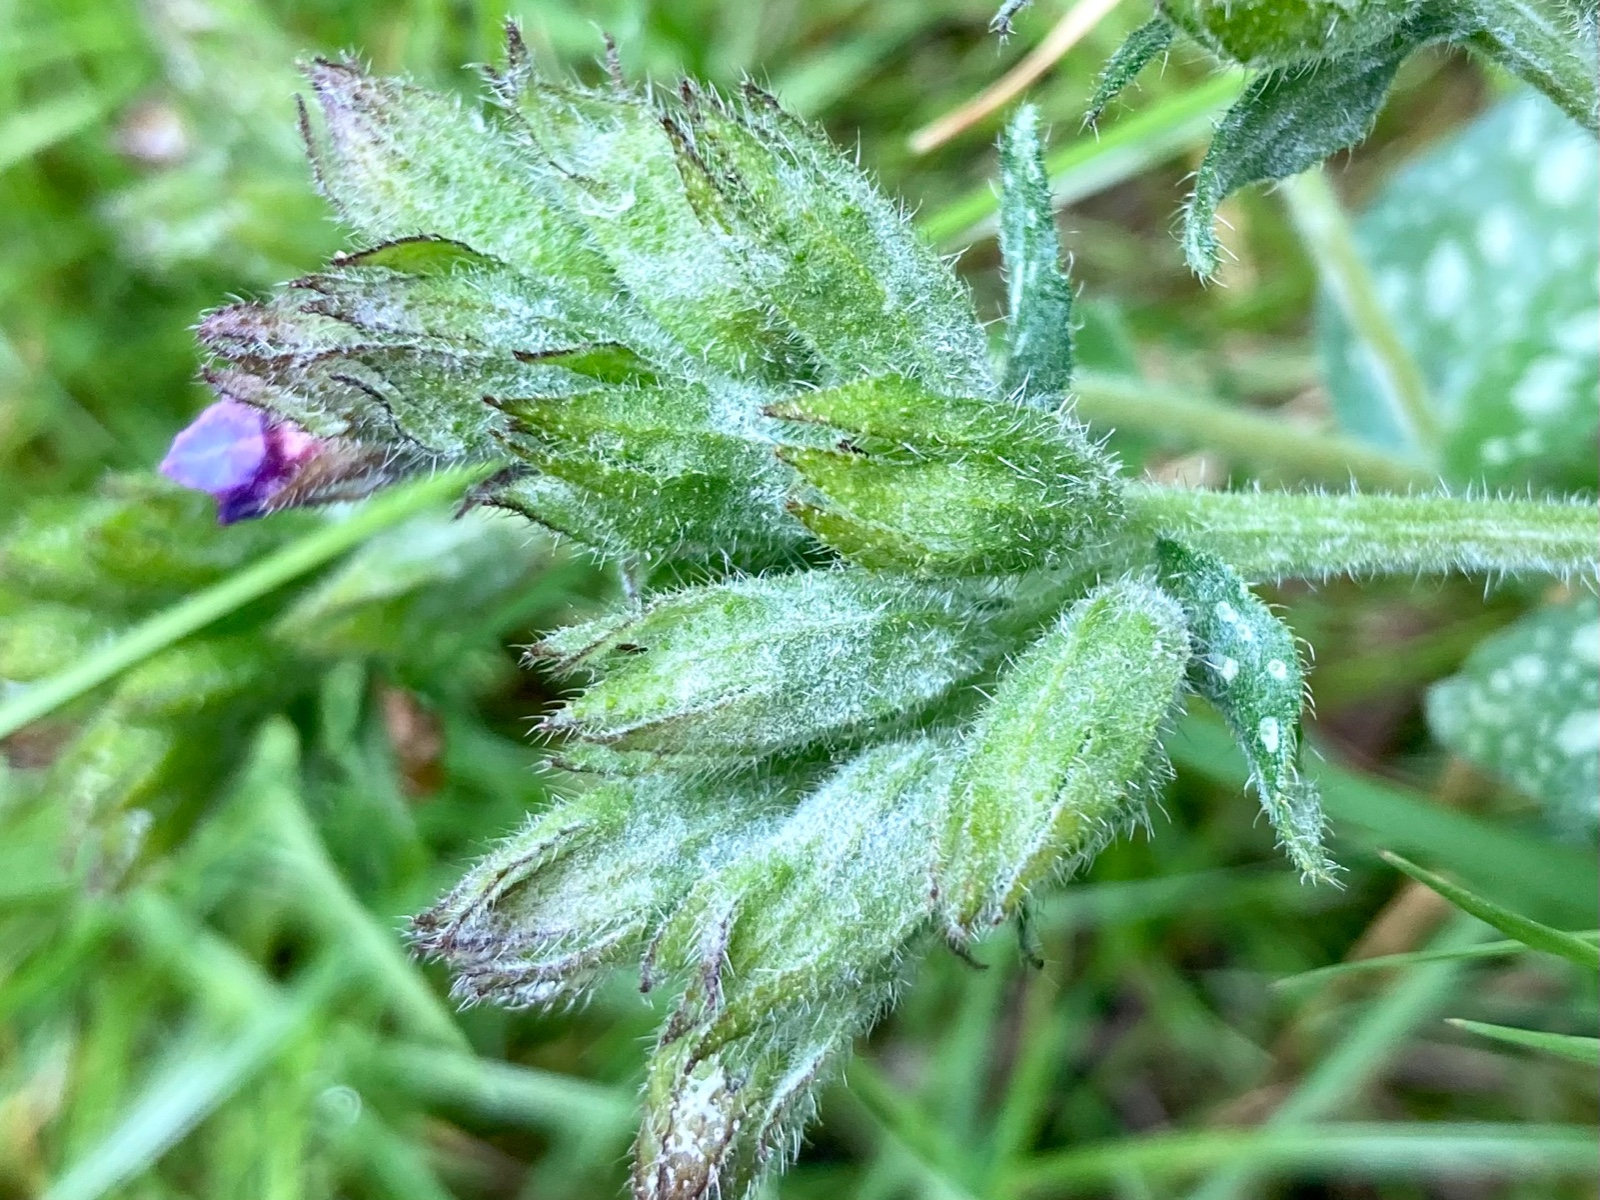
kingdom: Fungi
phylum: Ascomycota
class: Leotiomycetes
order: Helotiales
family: Erysiphaceae
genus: Golovinomyces
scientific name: Golovinomyces asperifoliorum
